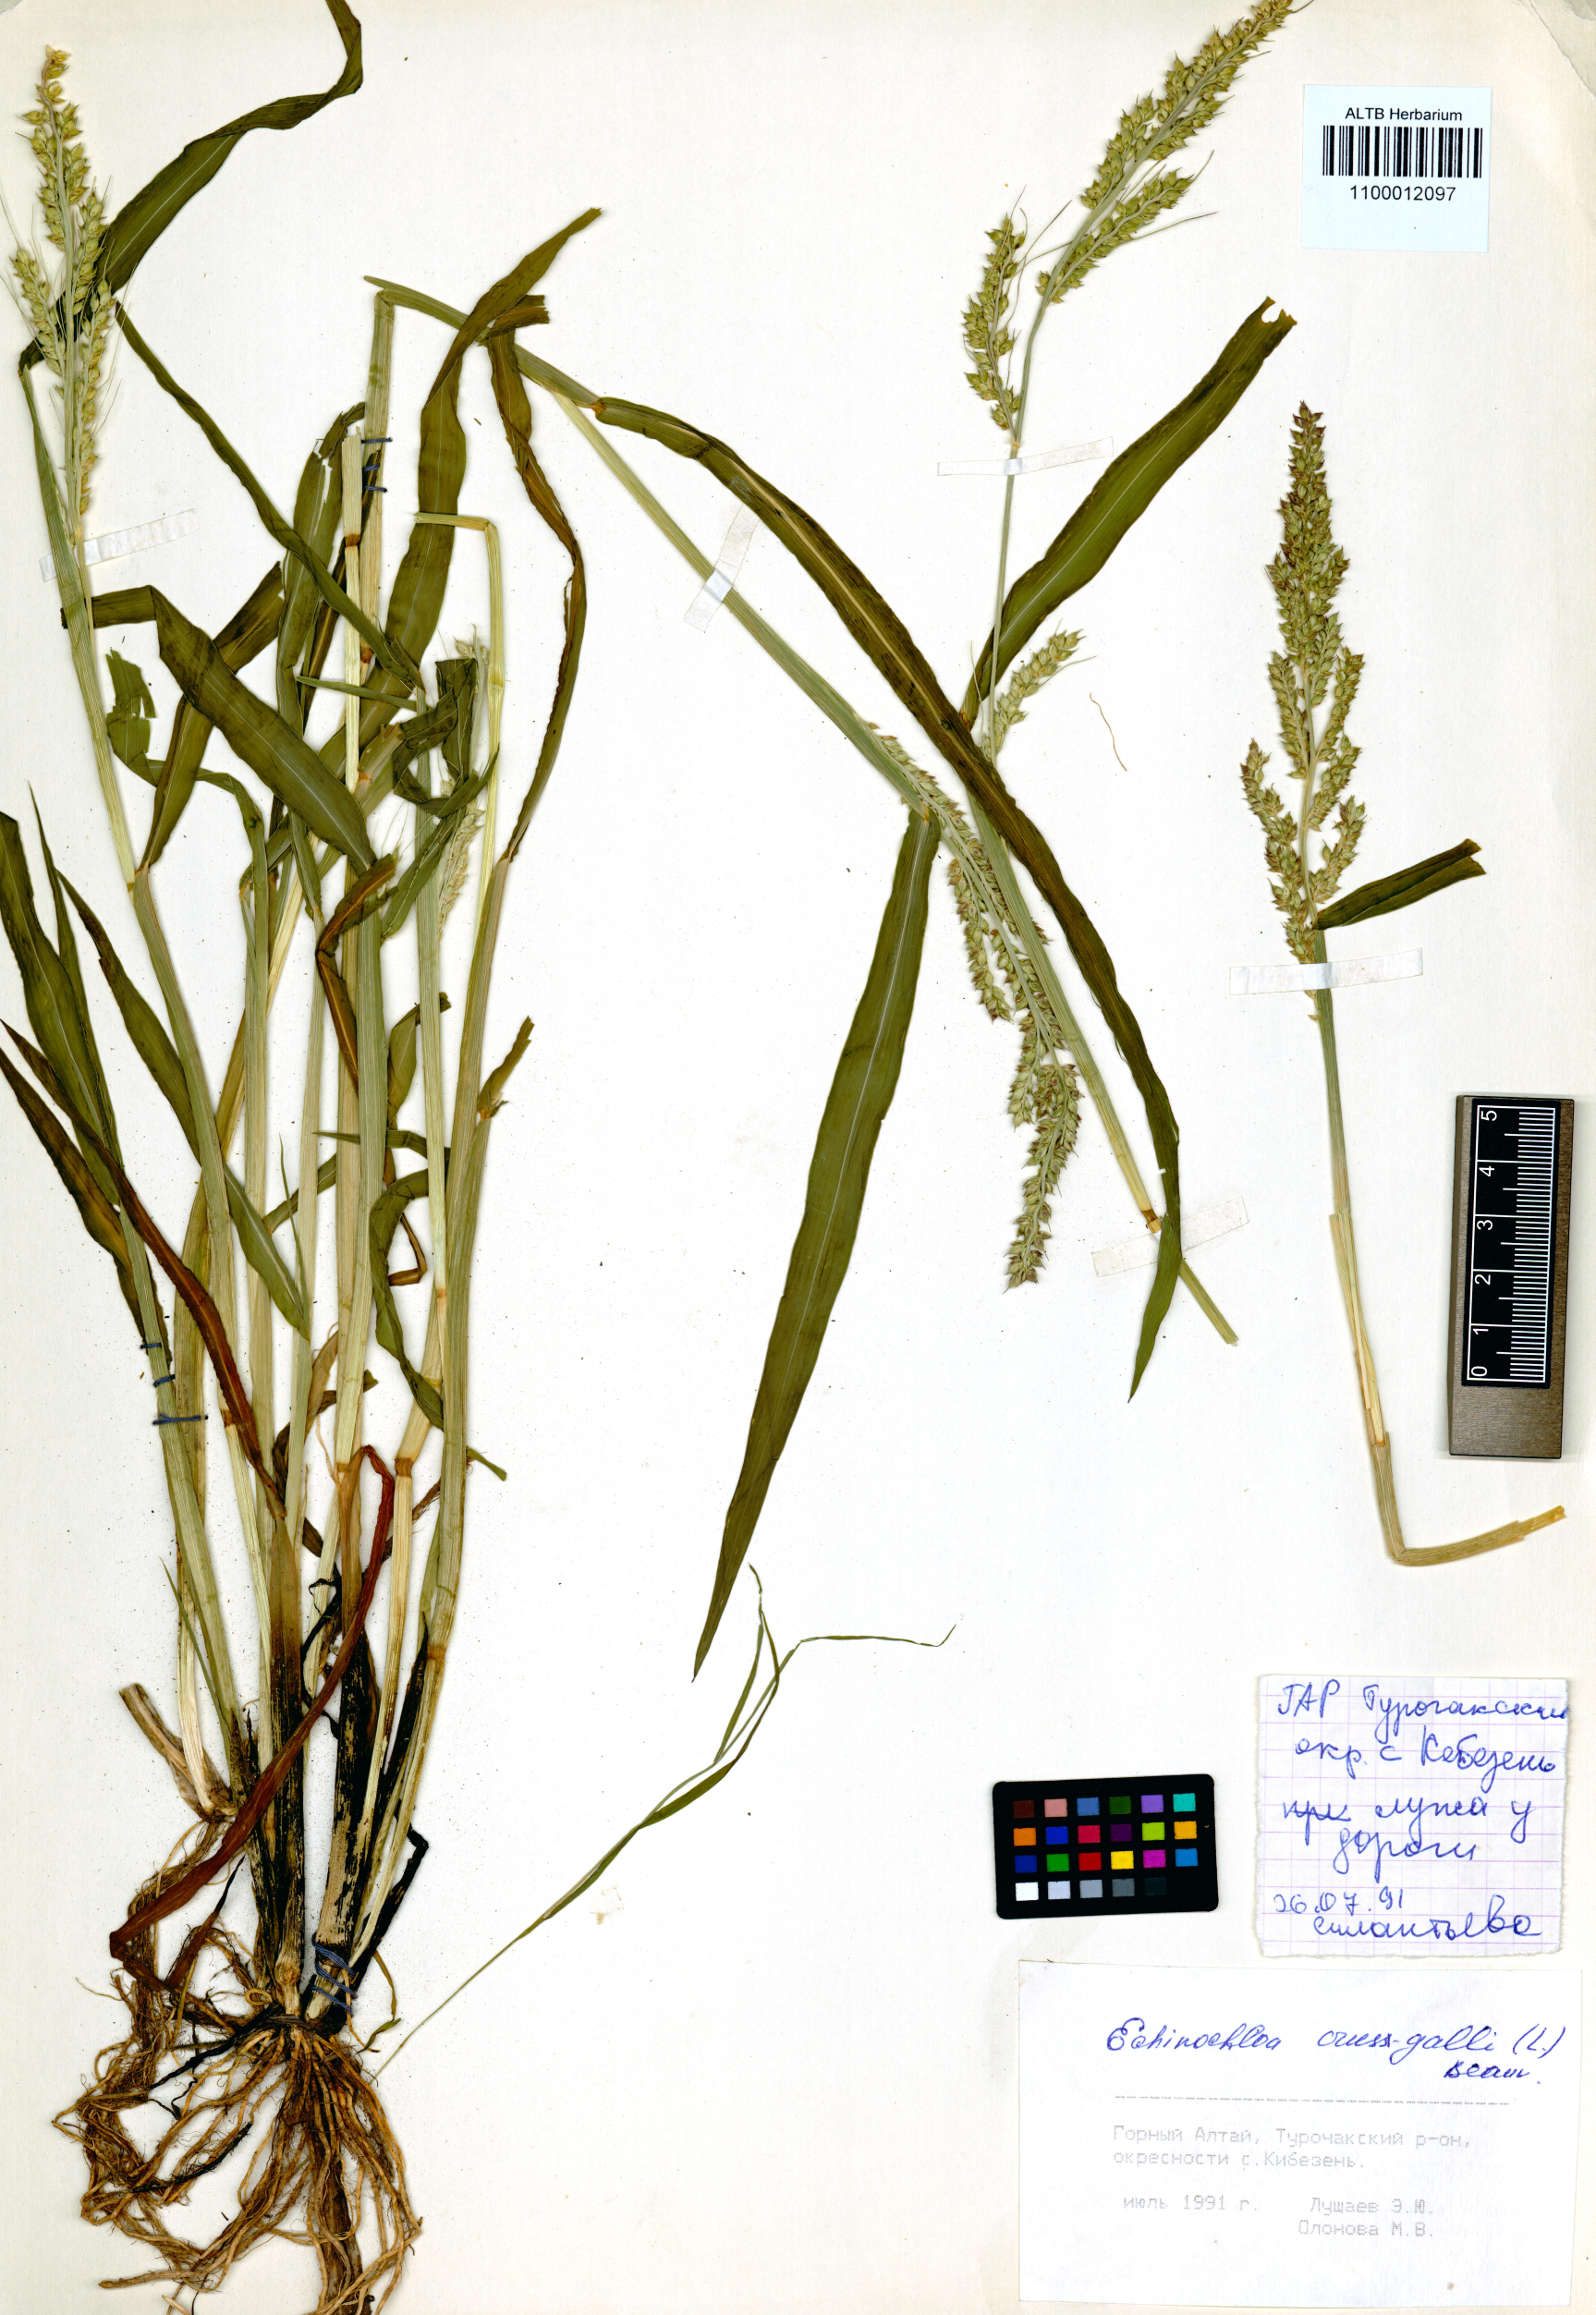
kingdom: Plantae
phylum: Tracheophyta
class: Liliopsida
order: Poales
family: Poaceae
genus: Echinochloa
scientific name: Echinochloa crus-galli
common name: Cockspur
